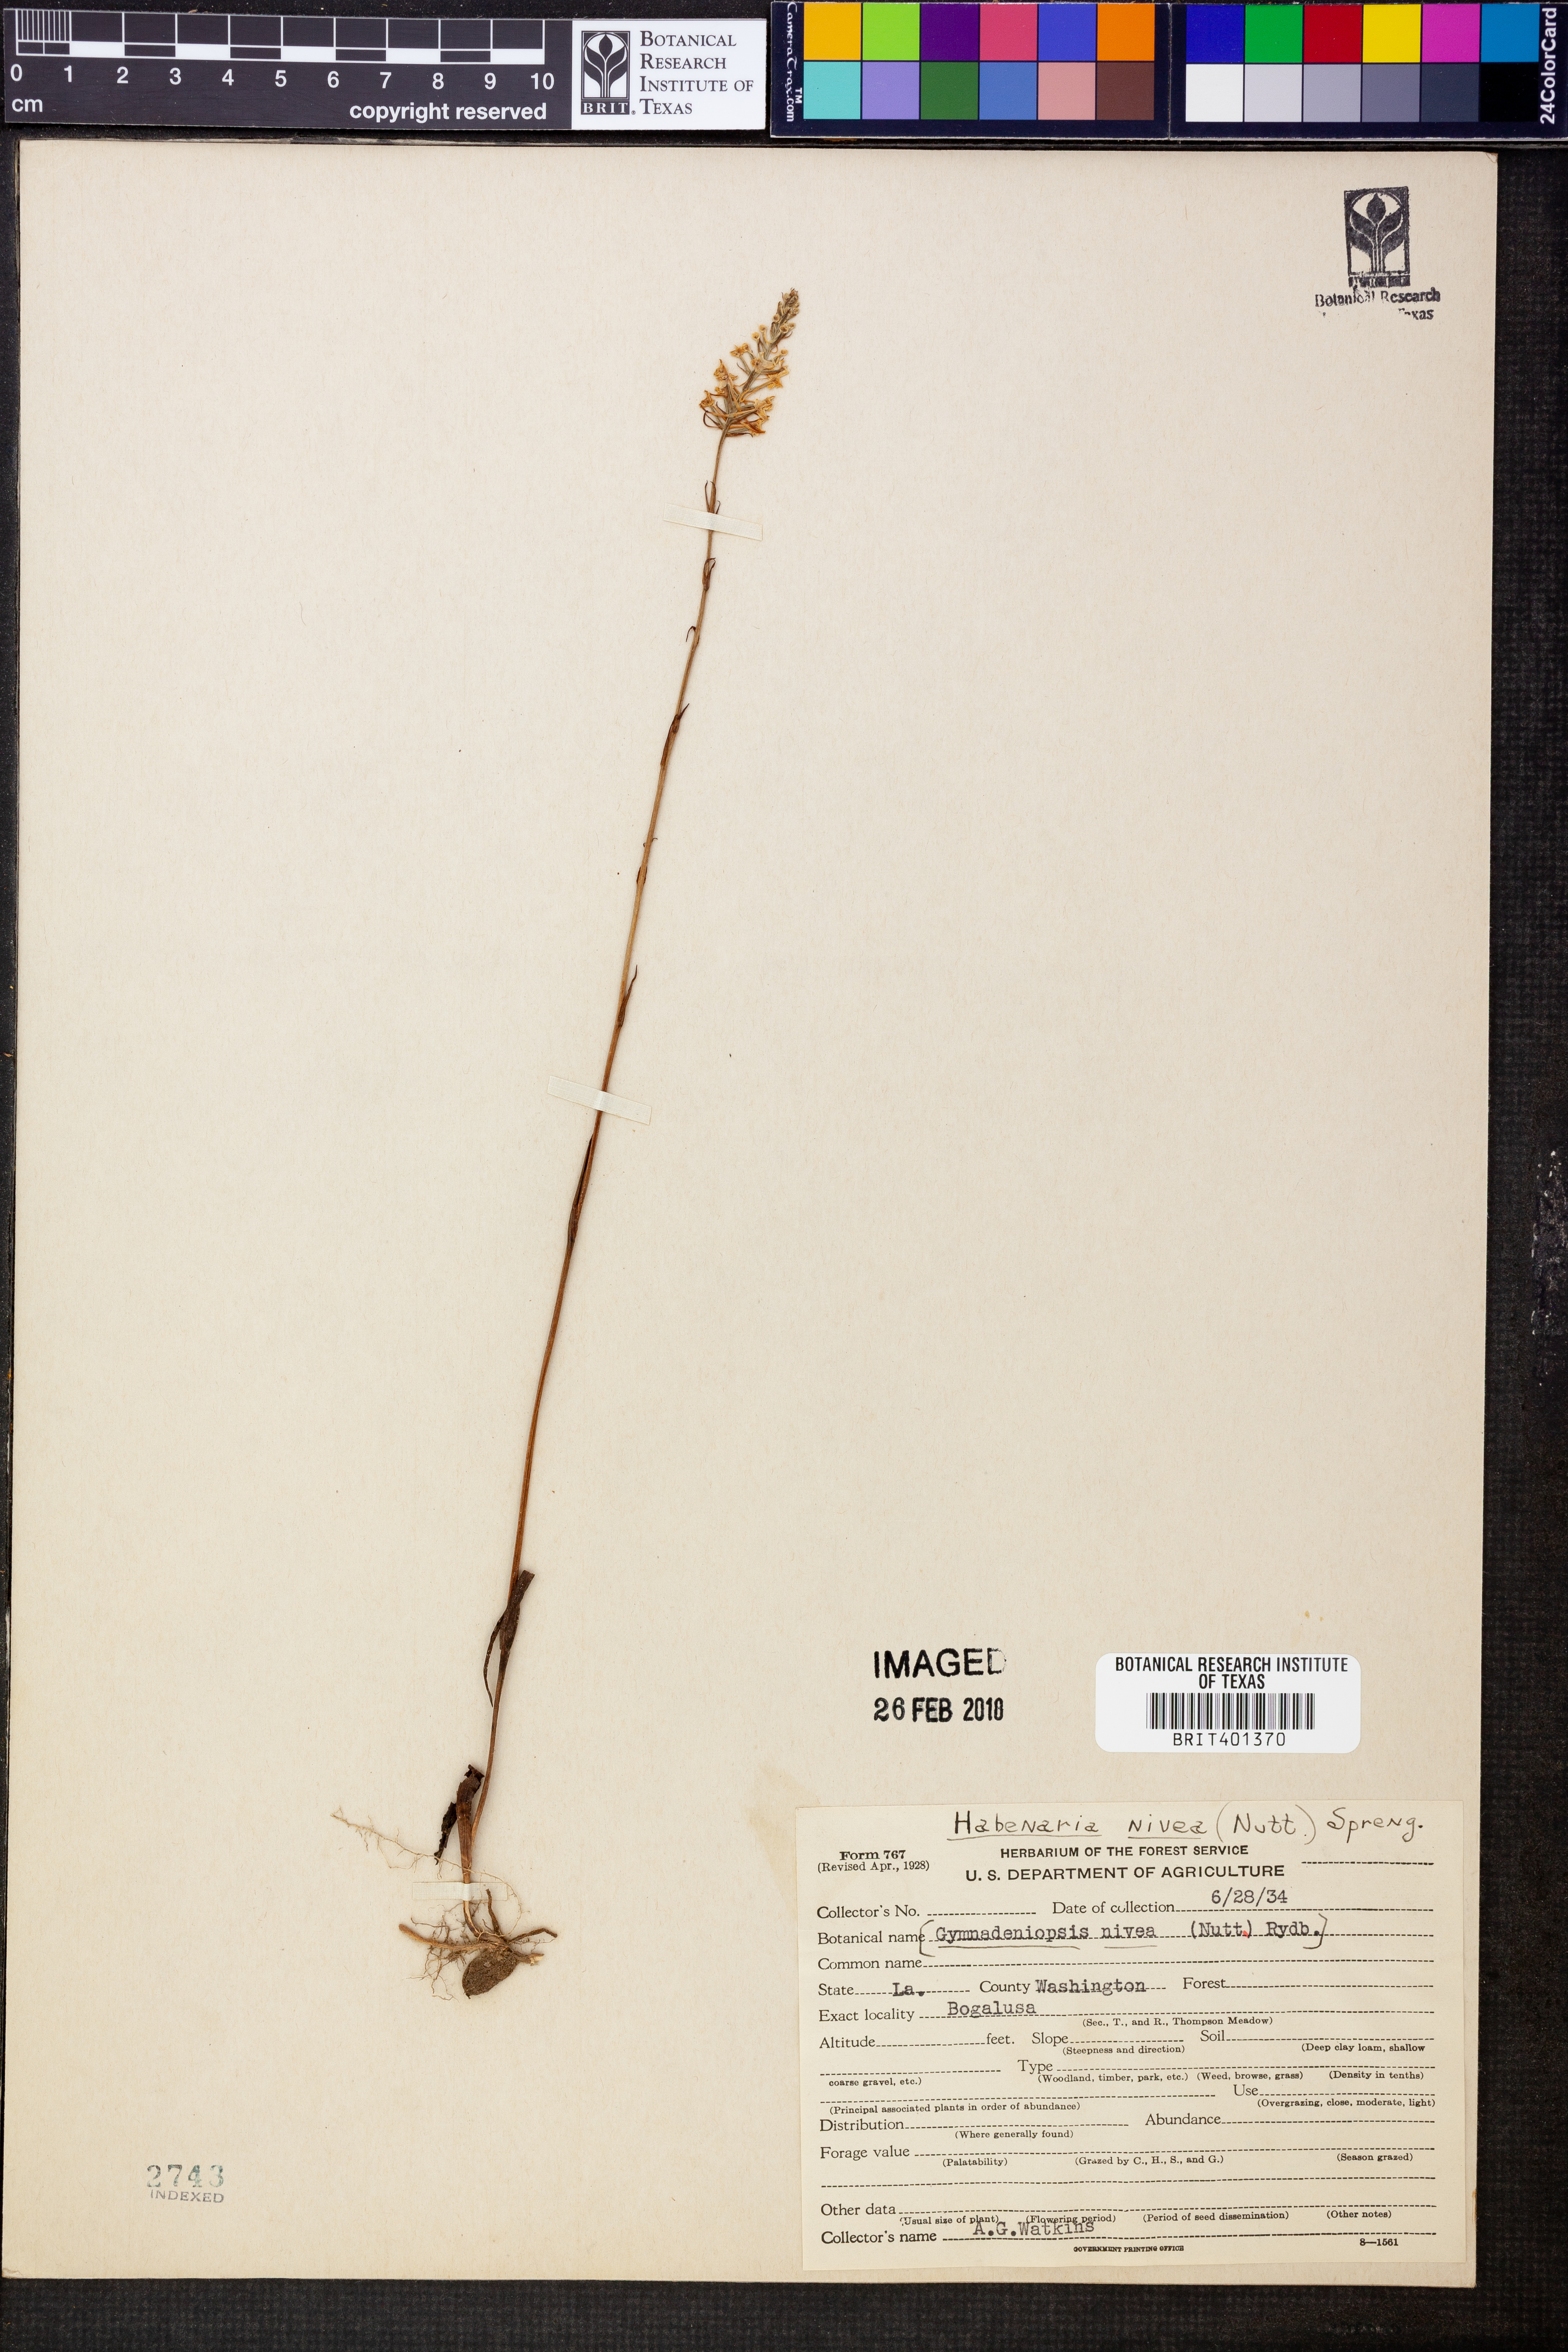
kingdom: Plantae
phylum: Tracheophyta
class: Liliopsida
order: Asparagales
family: Orchidaceae
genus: Platanthera
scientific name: Platanthera nivea
